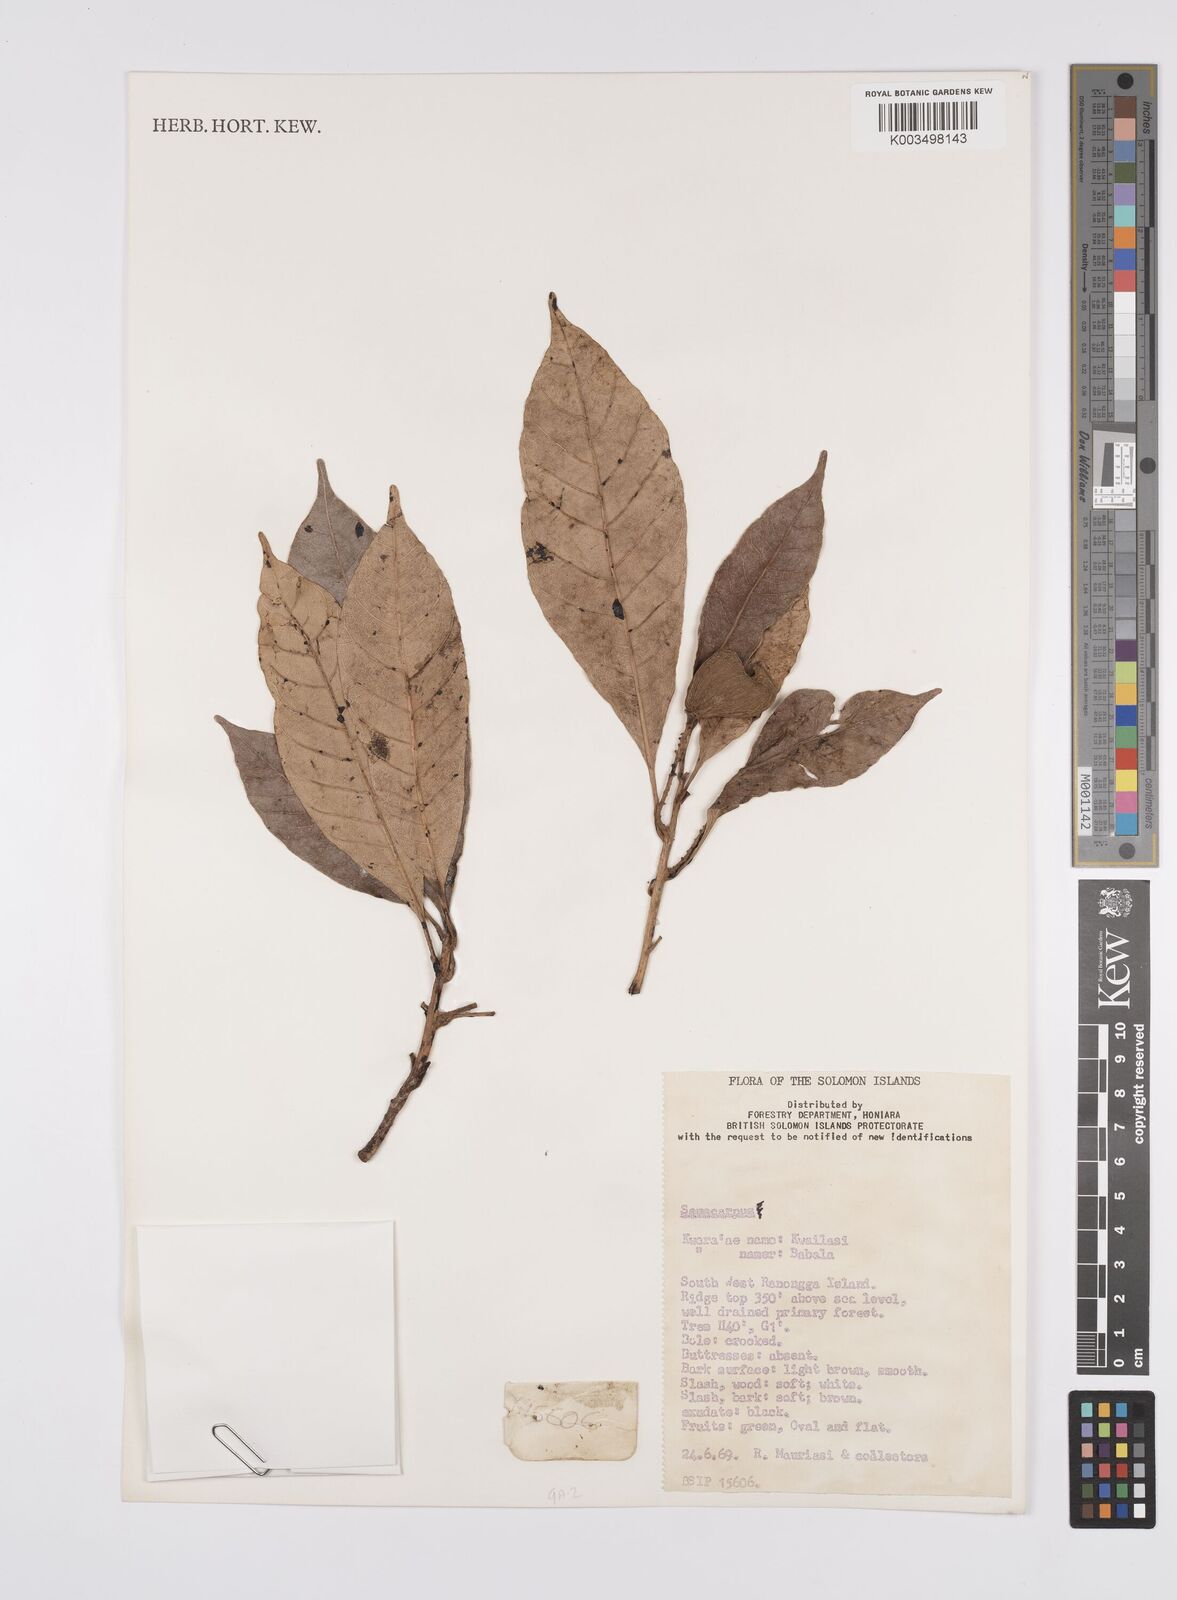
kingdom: Plantae
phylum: Tracheophyta
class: Magnoliopsida
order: Sapindales
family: Anacardiaceae
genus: Semecarpus
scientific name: Semecarpus
